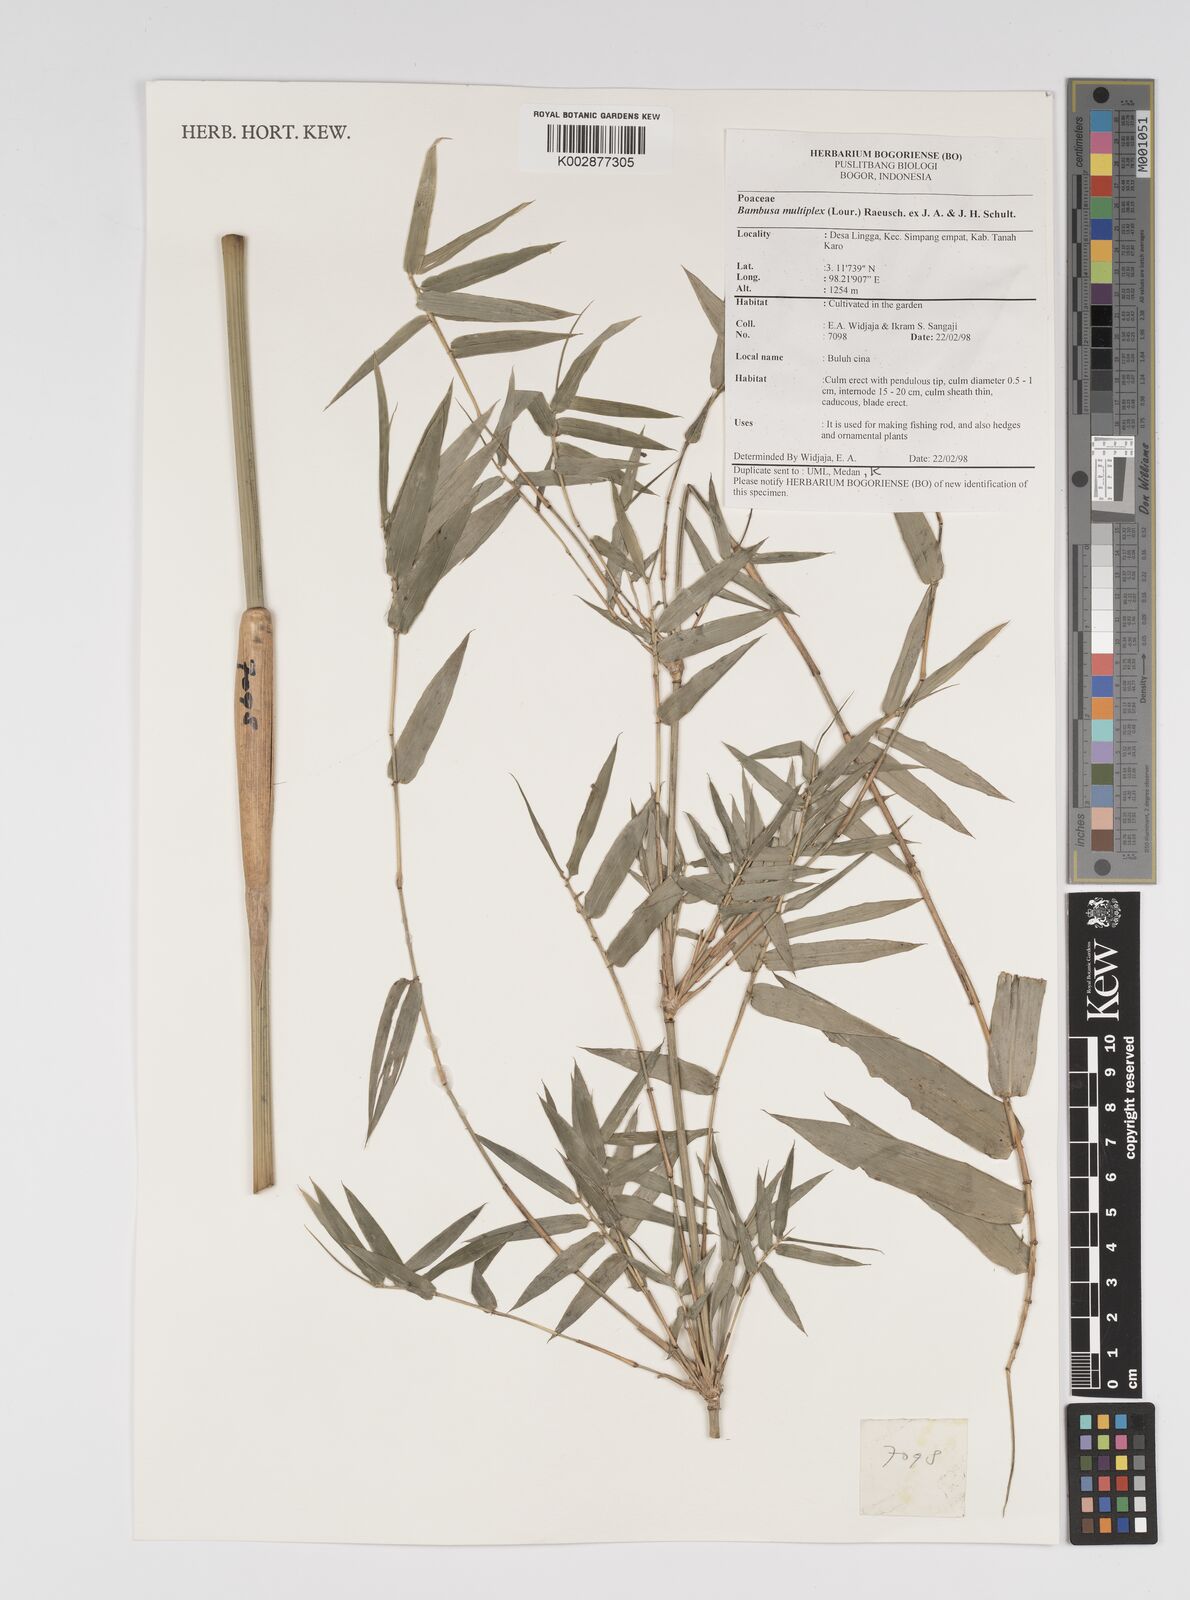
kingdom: Plantae
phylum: Tracheophyta
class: Liliopsida
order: Poales
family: Poaceae
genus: Bambusa
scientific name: Bambusa multiplex
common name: Hedge bamboo
